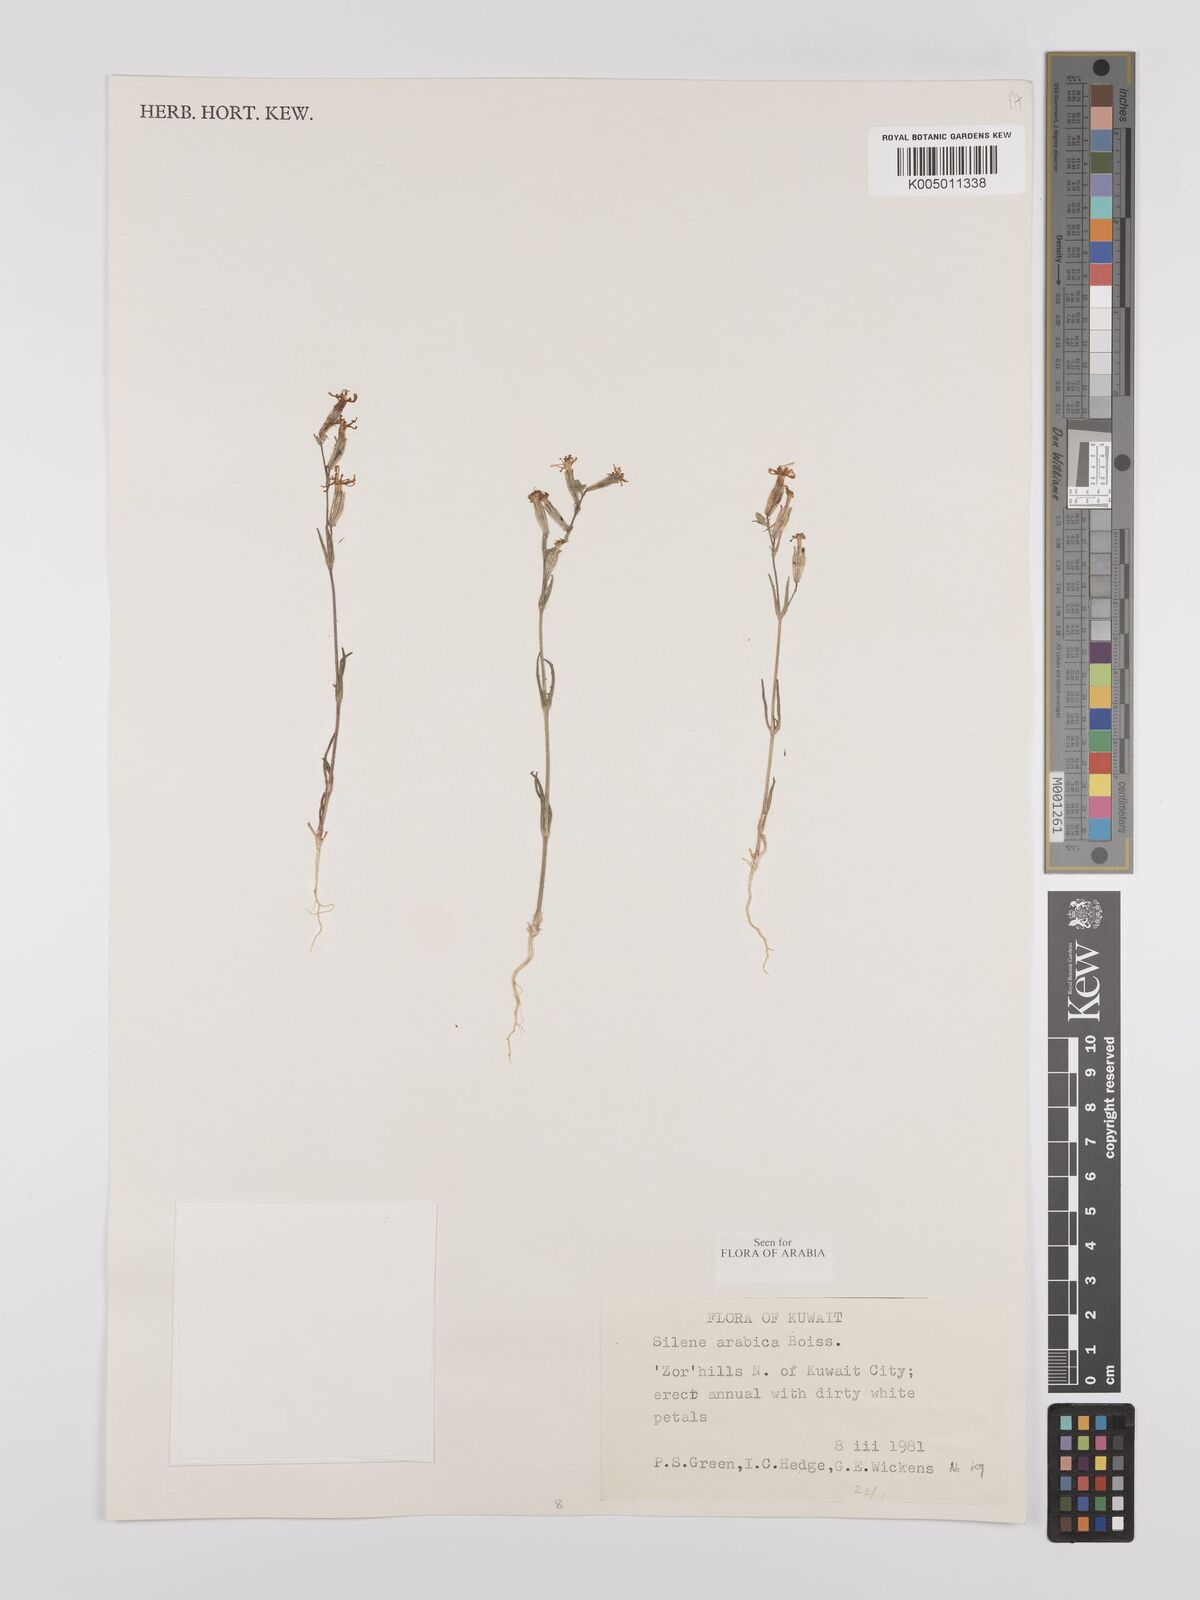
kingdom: Plantae
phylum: Tracheophyta
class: Magnoliopsida
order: Caryophyllales
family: Caryophyllaceae
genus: Silene
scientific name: Silene arabica
